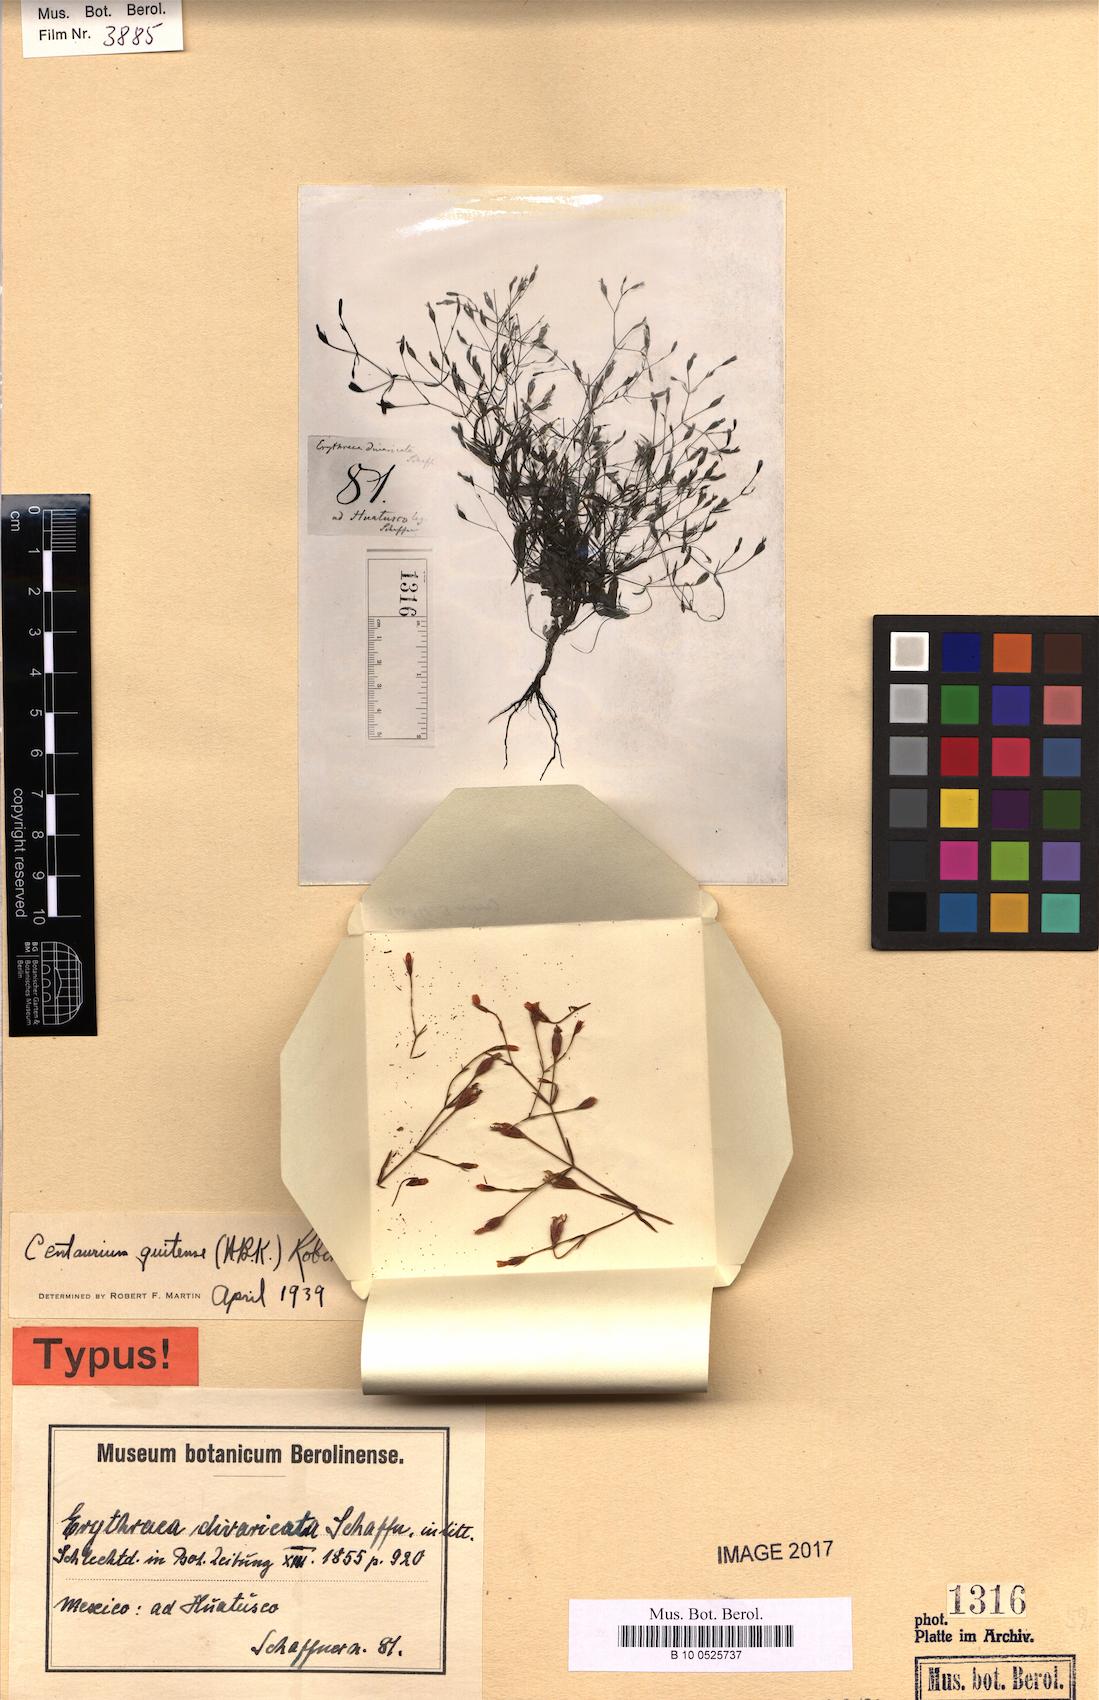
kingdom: Plantae
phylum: Tracheophyta
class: Magnoliopsida
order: Gentianales
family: Gentianaceae
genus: Zeltnera
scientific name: Zeltnera quitensis
